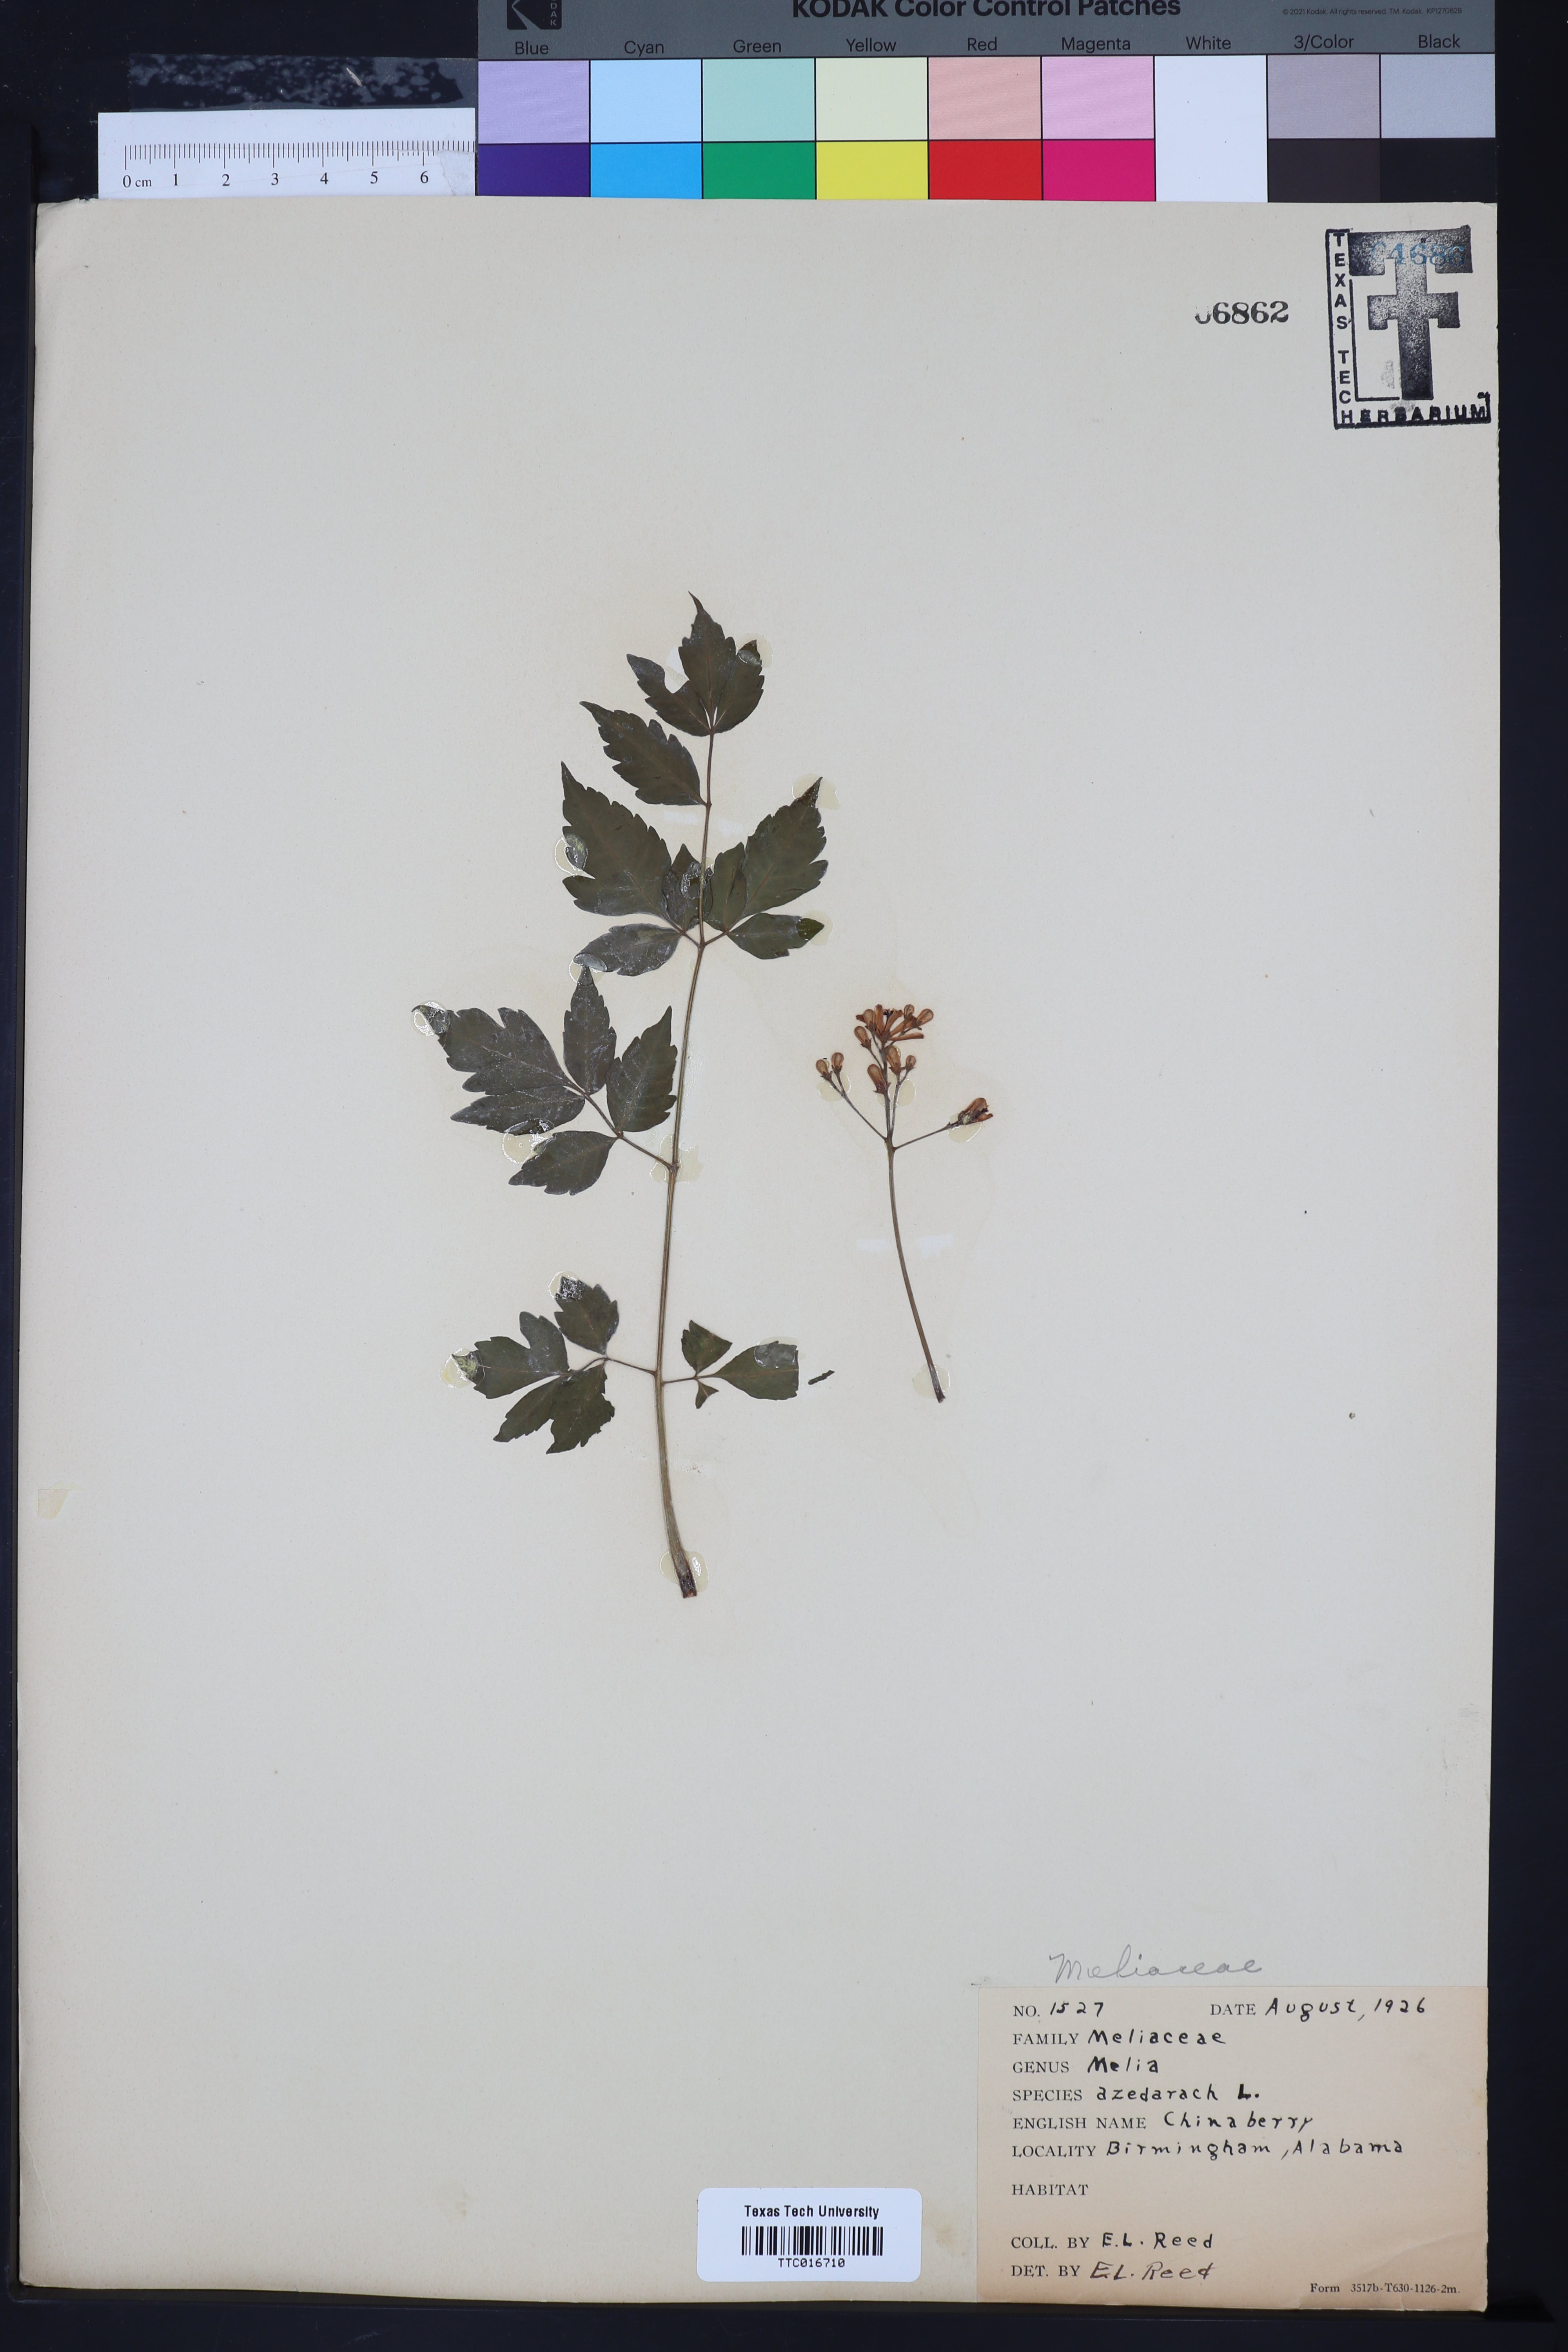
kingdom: Plantae
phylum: Tracheophyta
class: Magnoliopsida
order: Sapindales
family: Meliaceae
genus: Melia
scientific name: Melia azedarach
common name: Chinaberrytree
